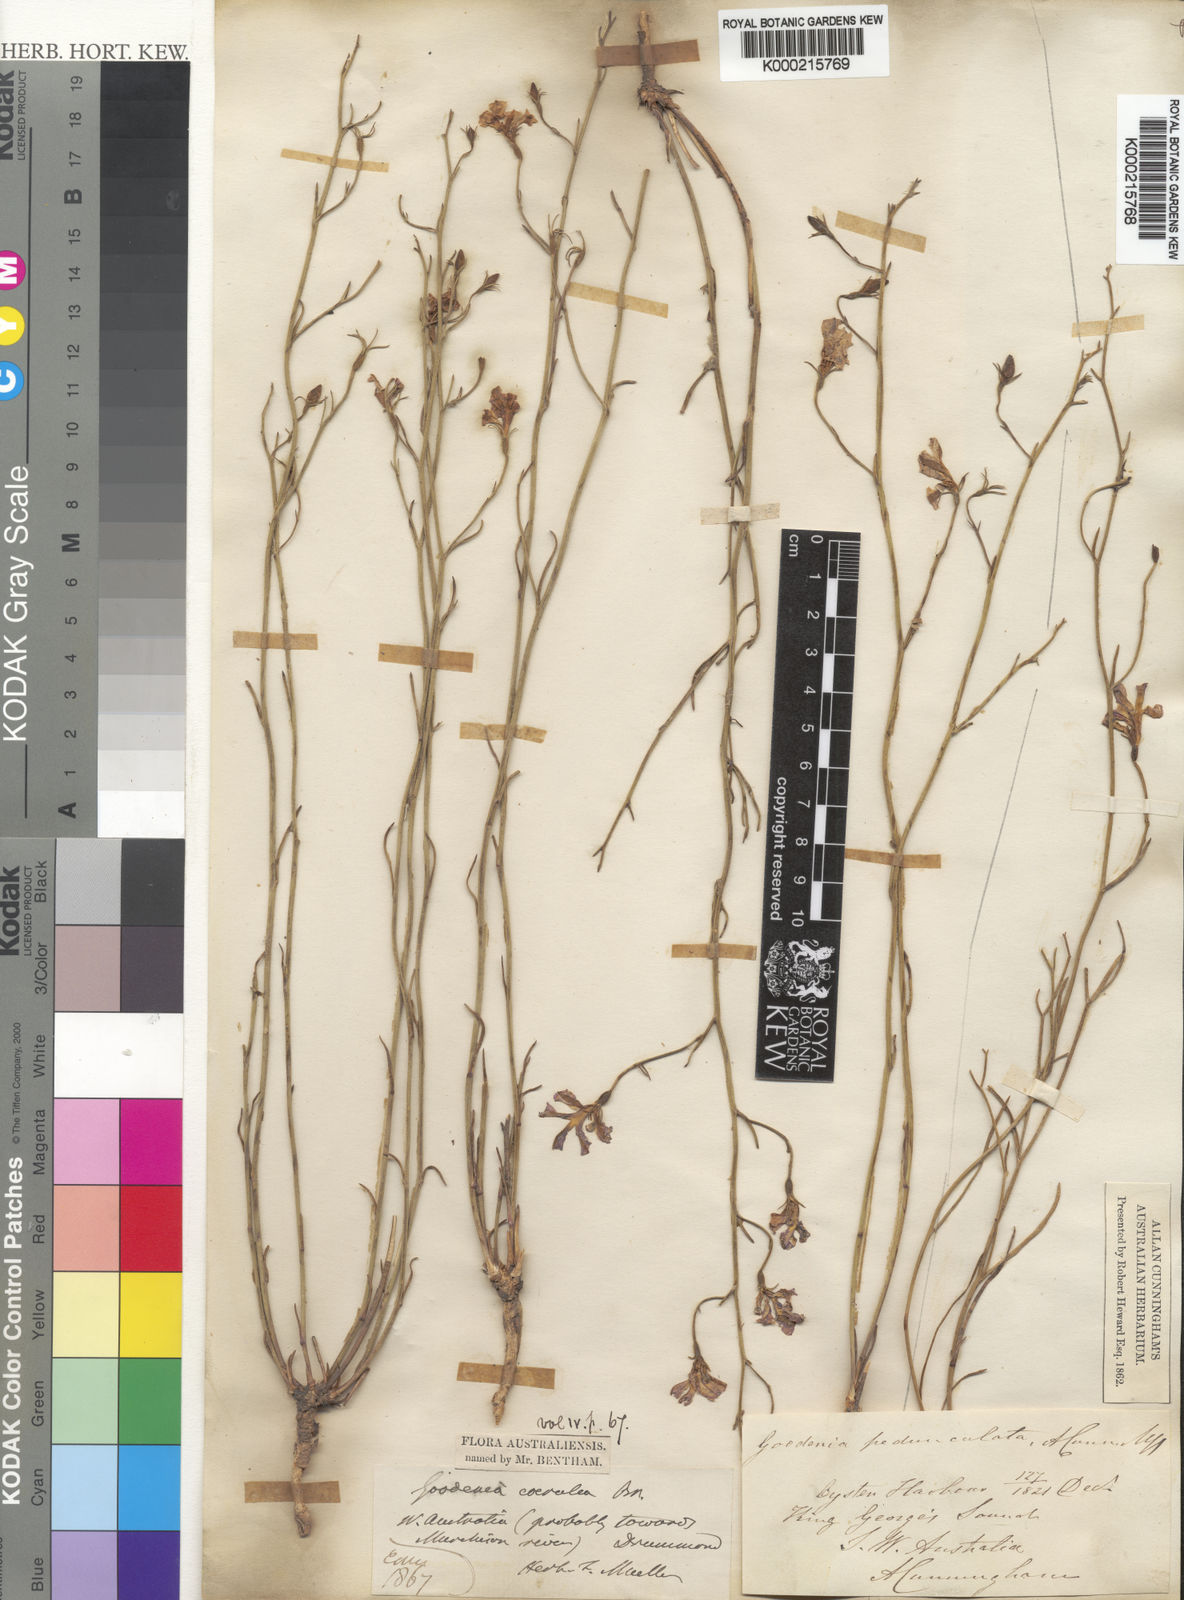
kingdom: Plantae
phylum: Tracheophyta
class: Magnoliopsida
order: Asterales
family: Goodeniaceae
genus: Goodenia
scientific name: Goodenia
